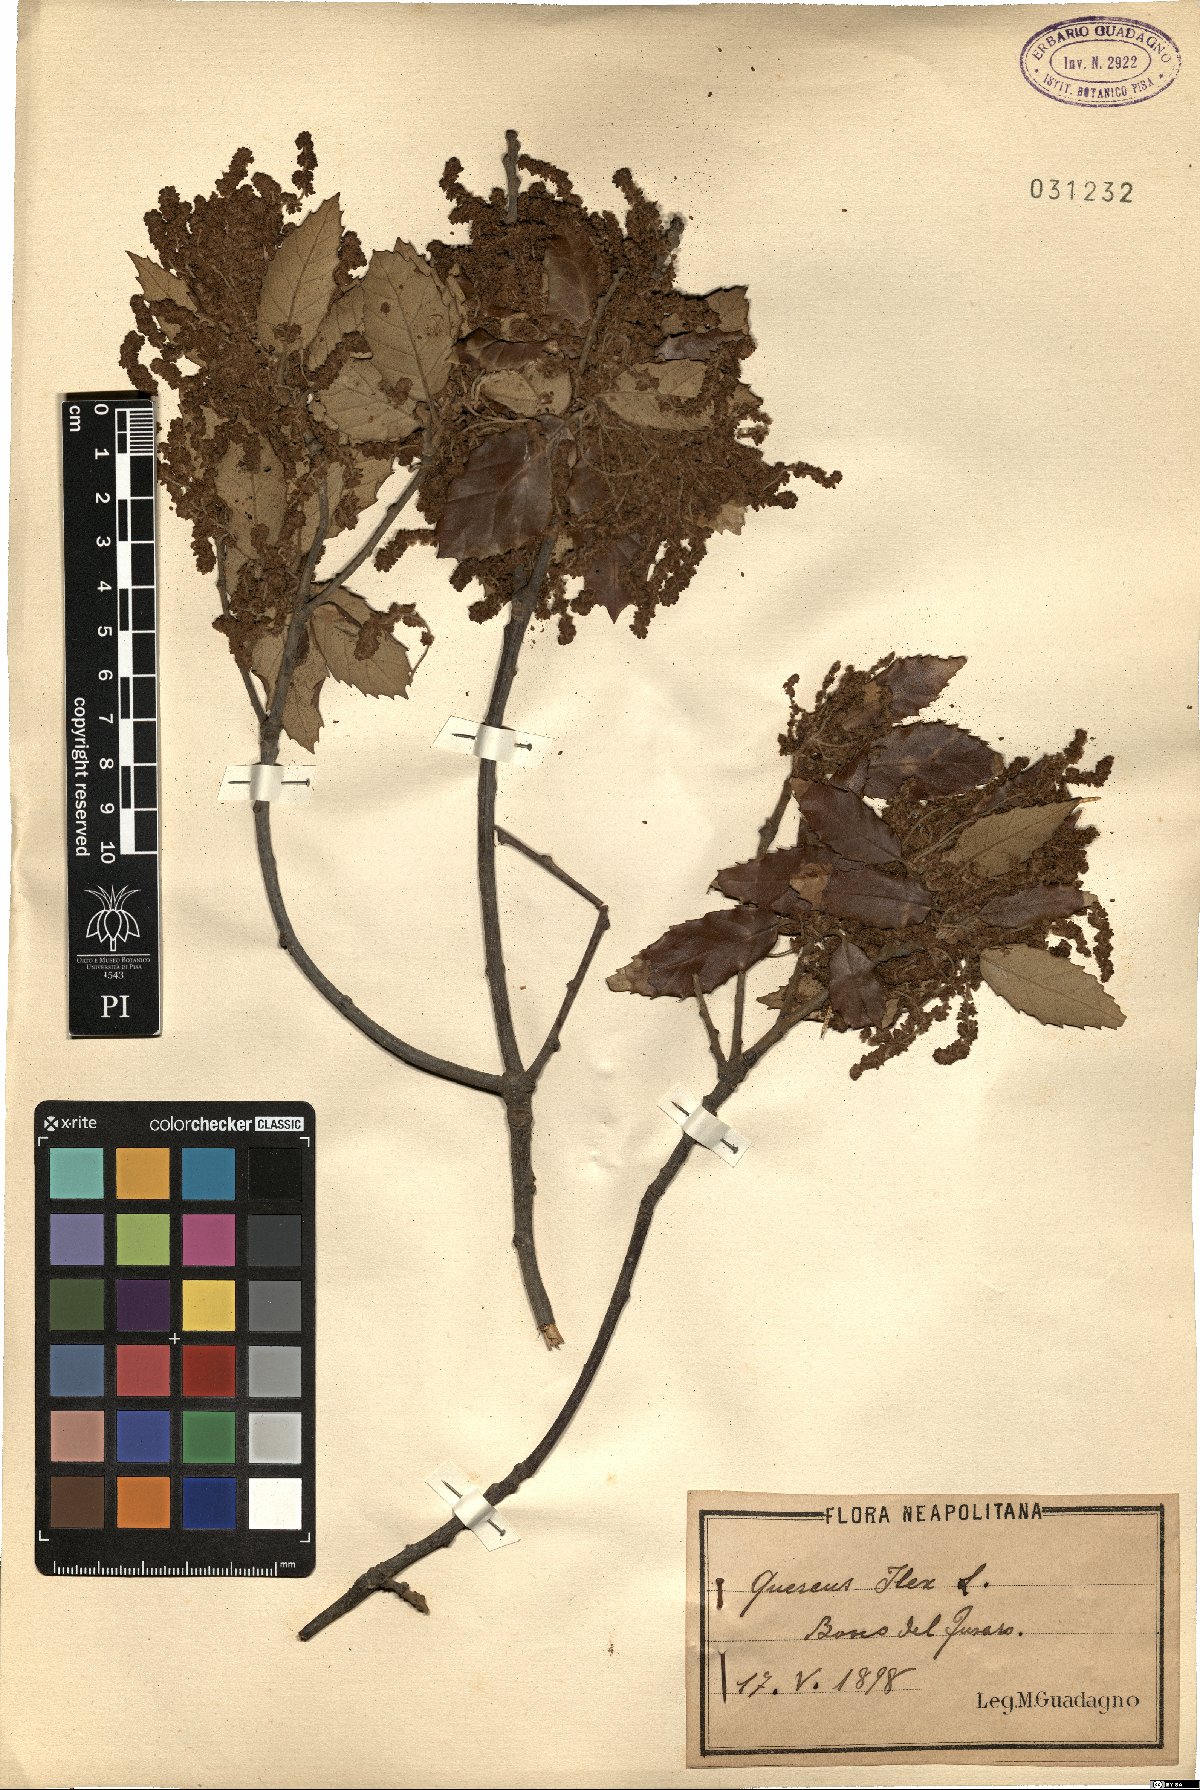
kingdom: Plantae
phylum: Tracheophyta
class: Magnoliopsida
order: Fagales
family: Fagaceae
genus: Quercus
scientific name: Quercus ilex
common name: Evergreen oak
